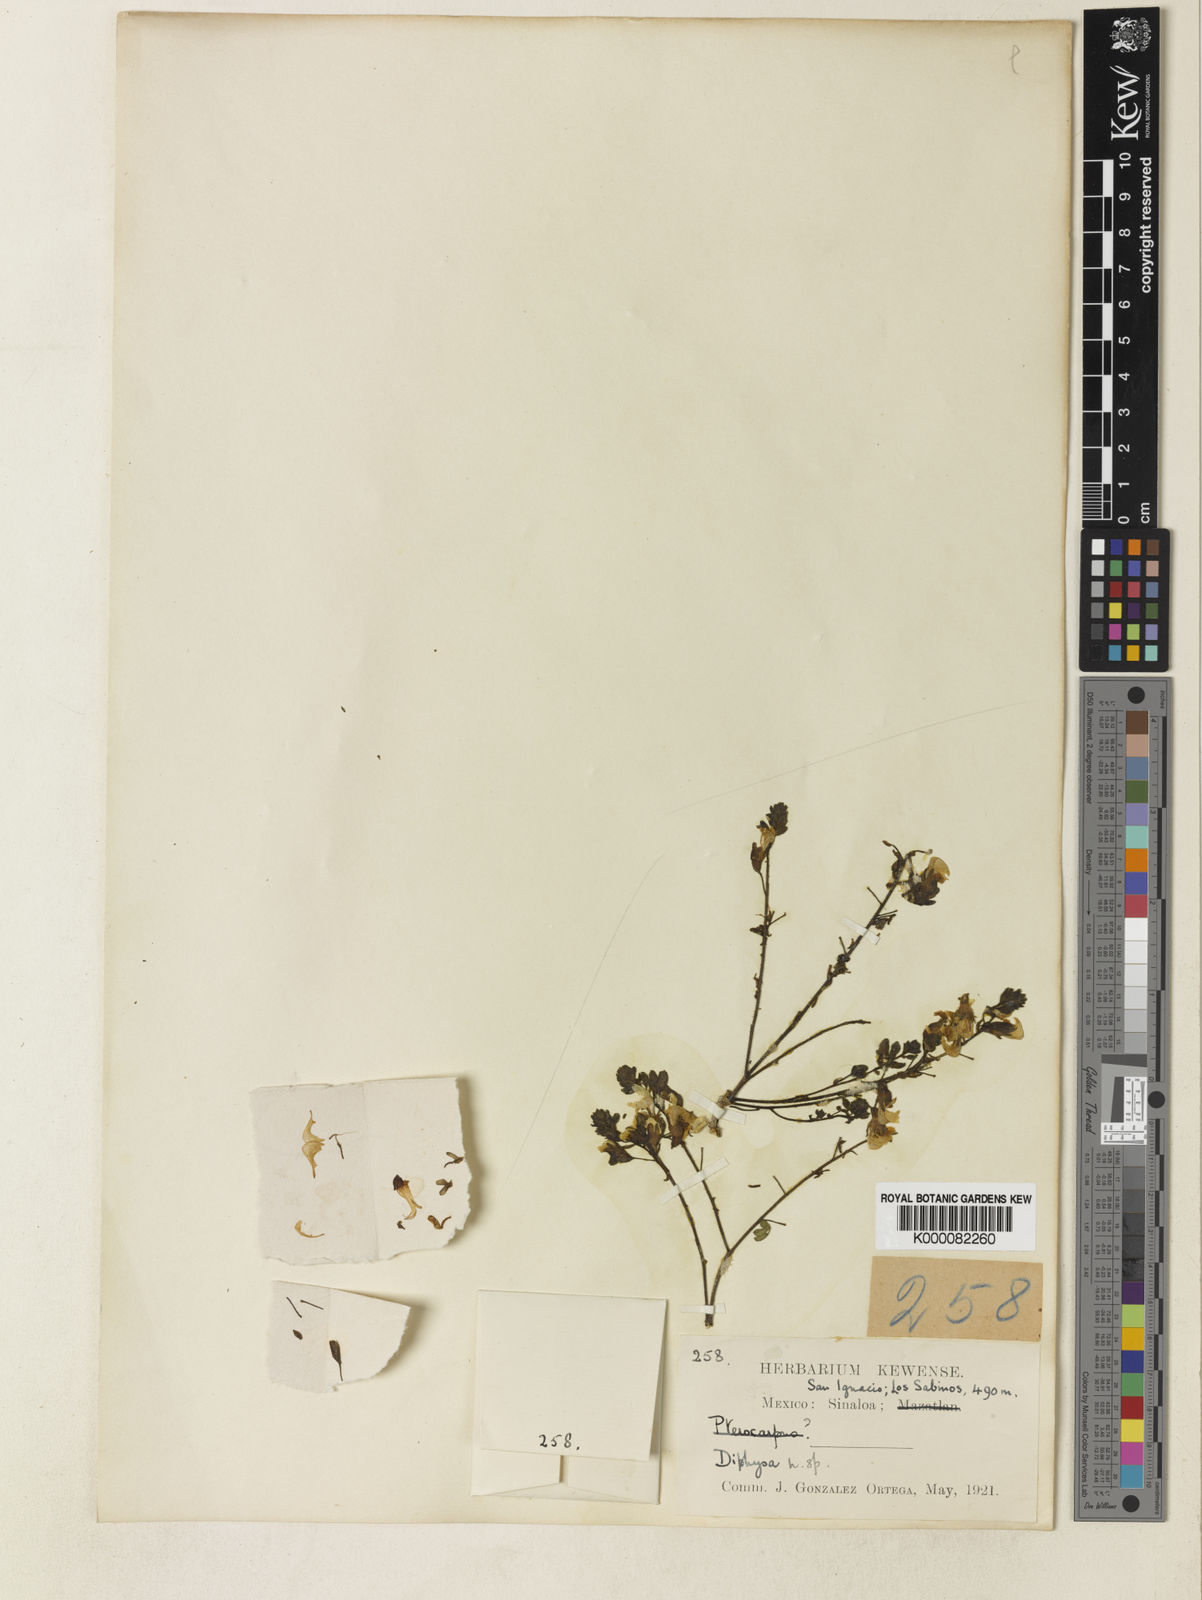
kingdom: Plantae
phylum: Tracheophyta
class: Magnoliopsida
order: Fabales
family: Fabaceae
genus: Diphysa
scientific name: Diphysa
